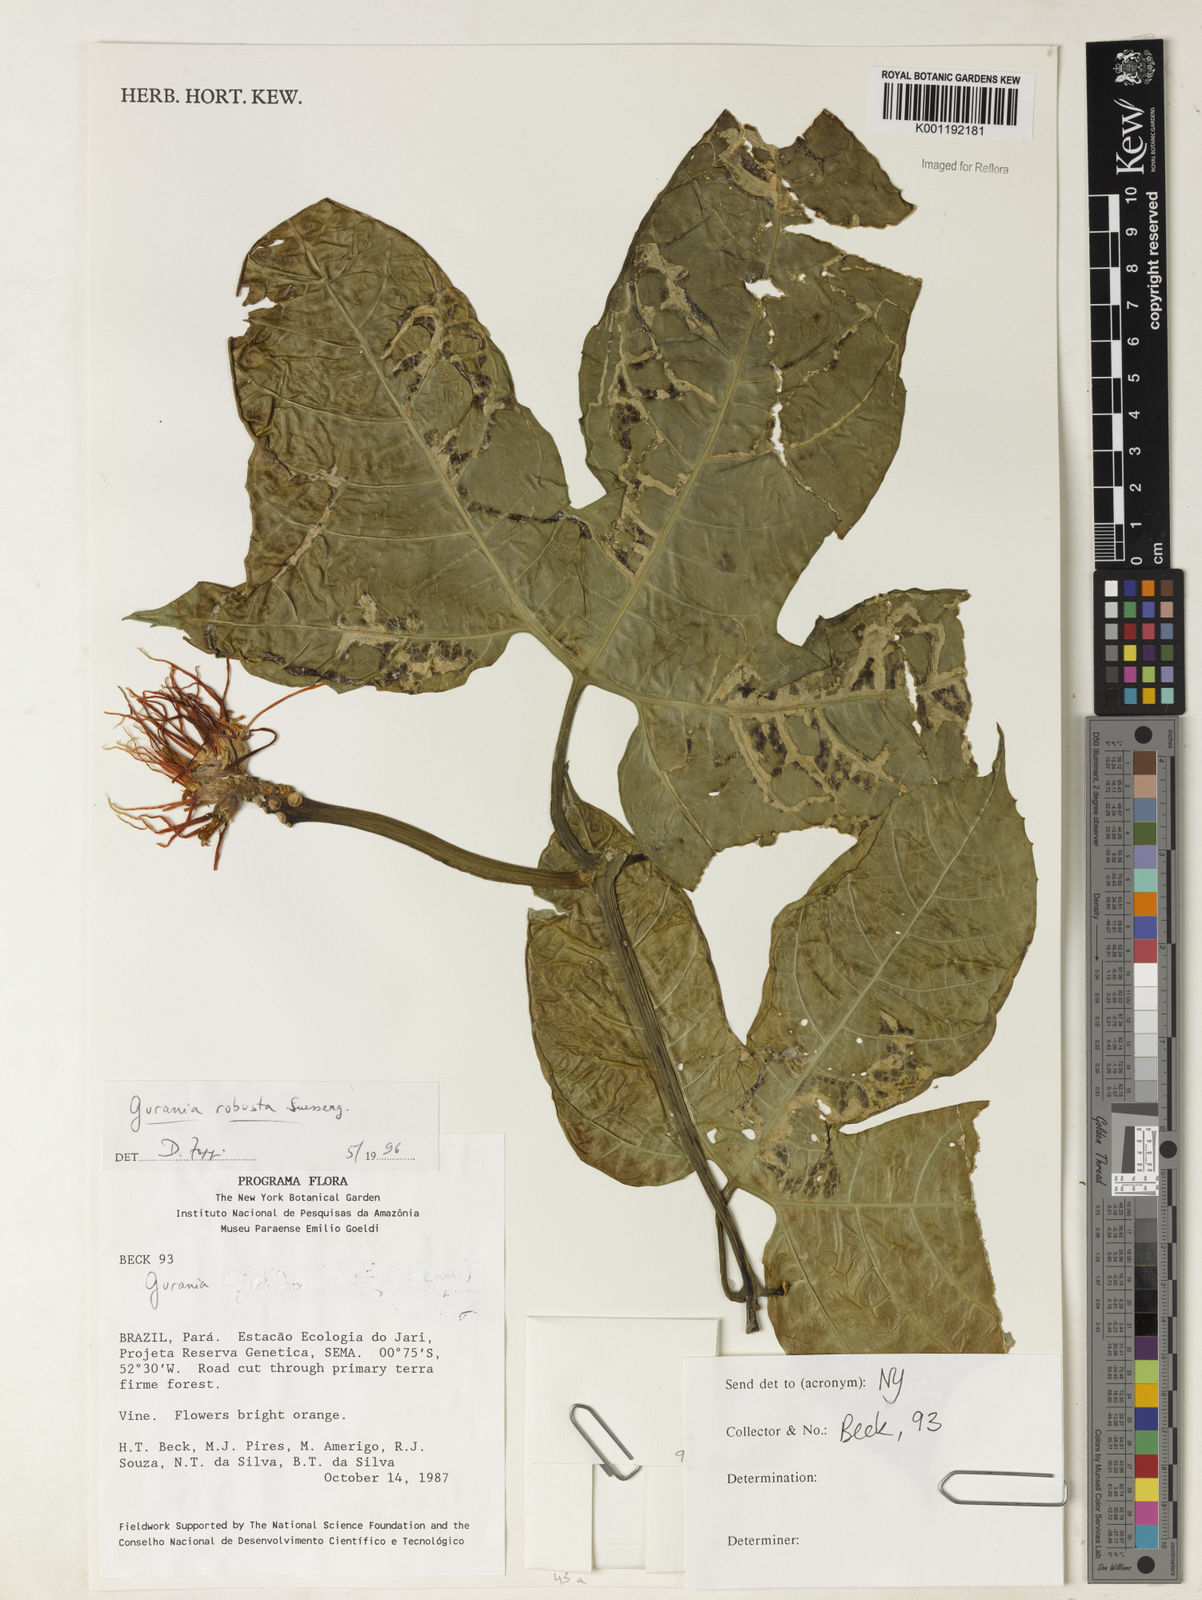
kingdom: Plantae
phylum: Tracheophyta
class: Magnoliopsida
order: Cucurbitales
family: Cucurbitaceae
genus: Gurania
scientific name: Gurania
